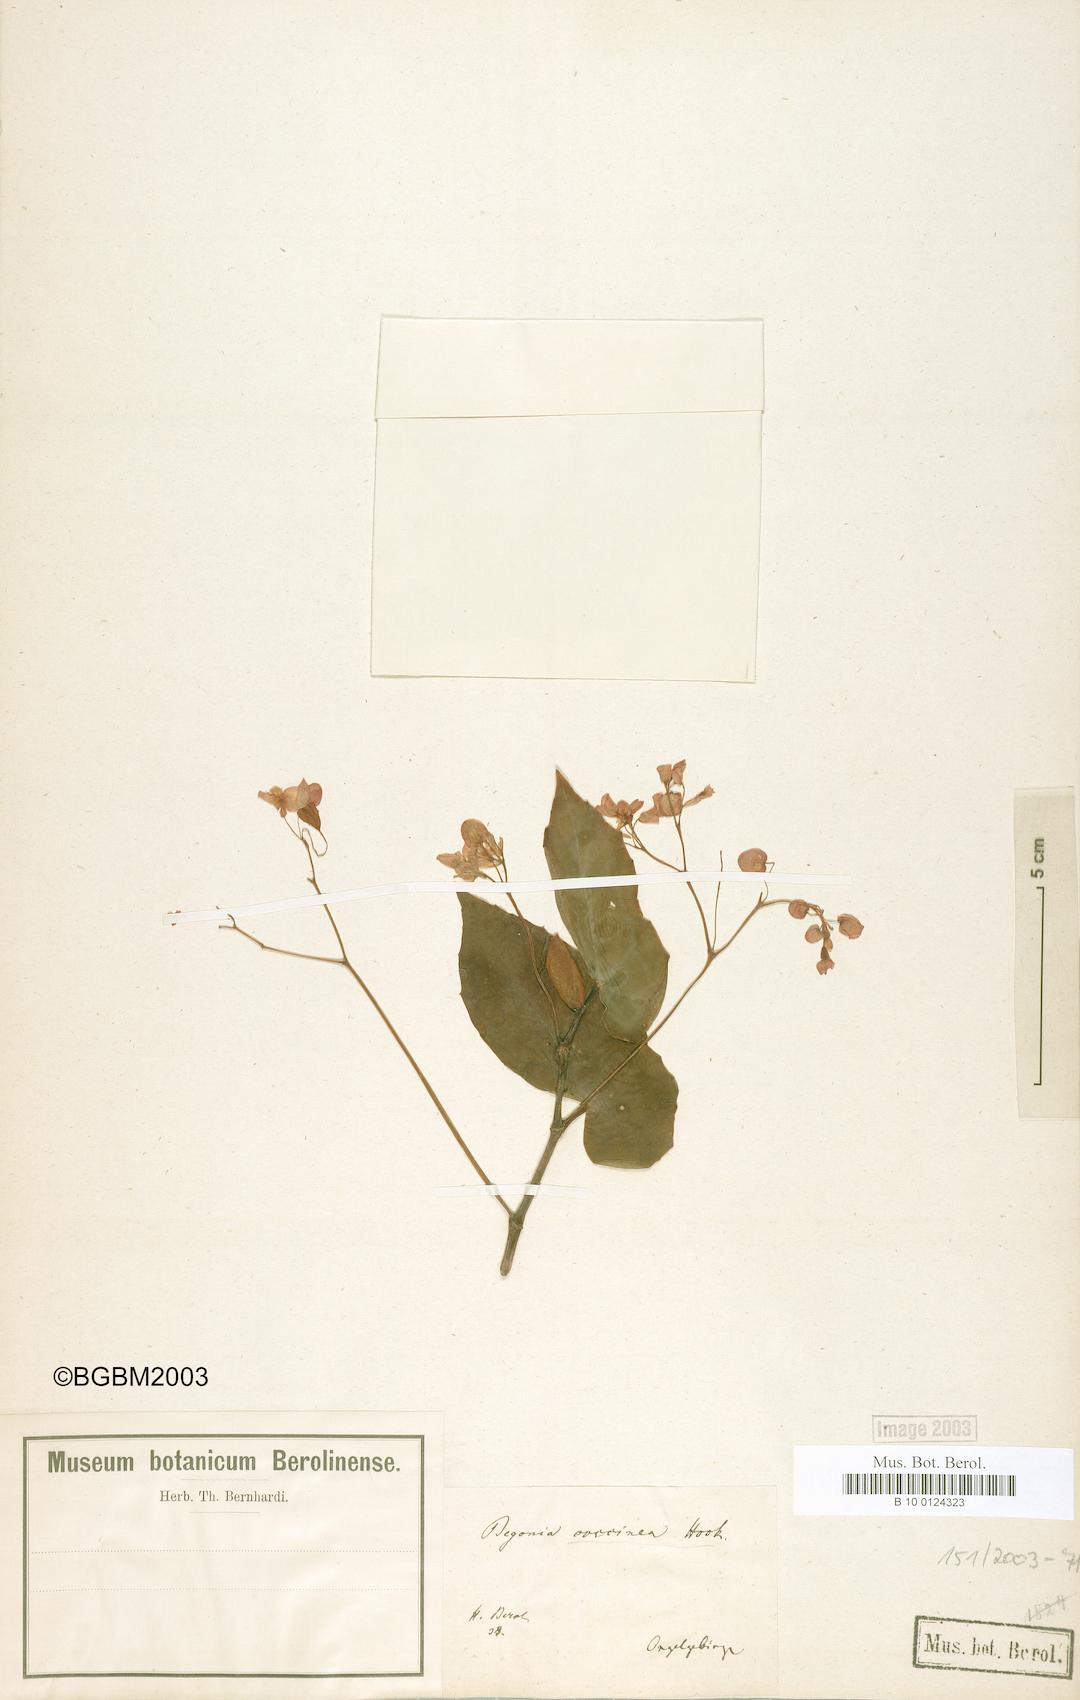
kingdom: Plantae
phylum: Tracheophyta
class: Magnoliopsida
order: Cucurbitales
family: Begoniaceae
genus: Begonia
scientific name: Begonia coccinea
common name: Angel-wing begonia
